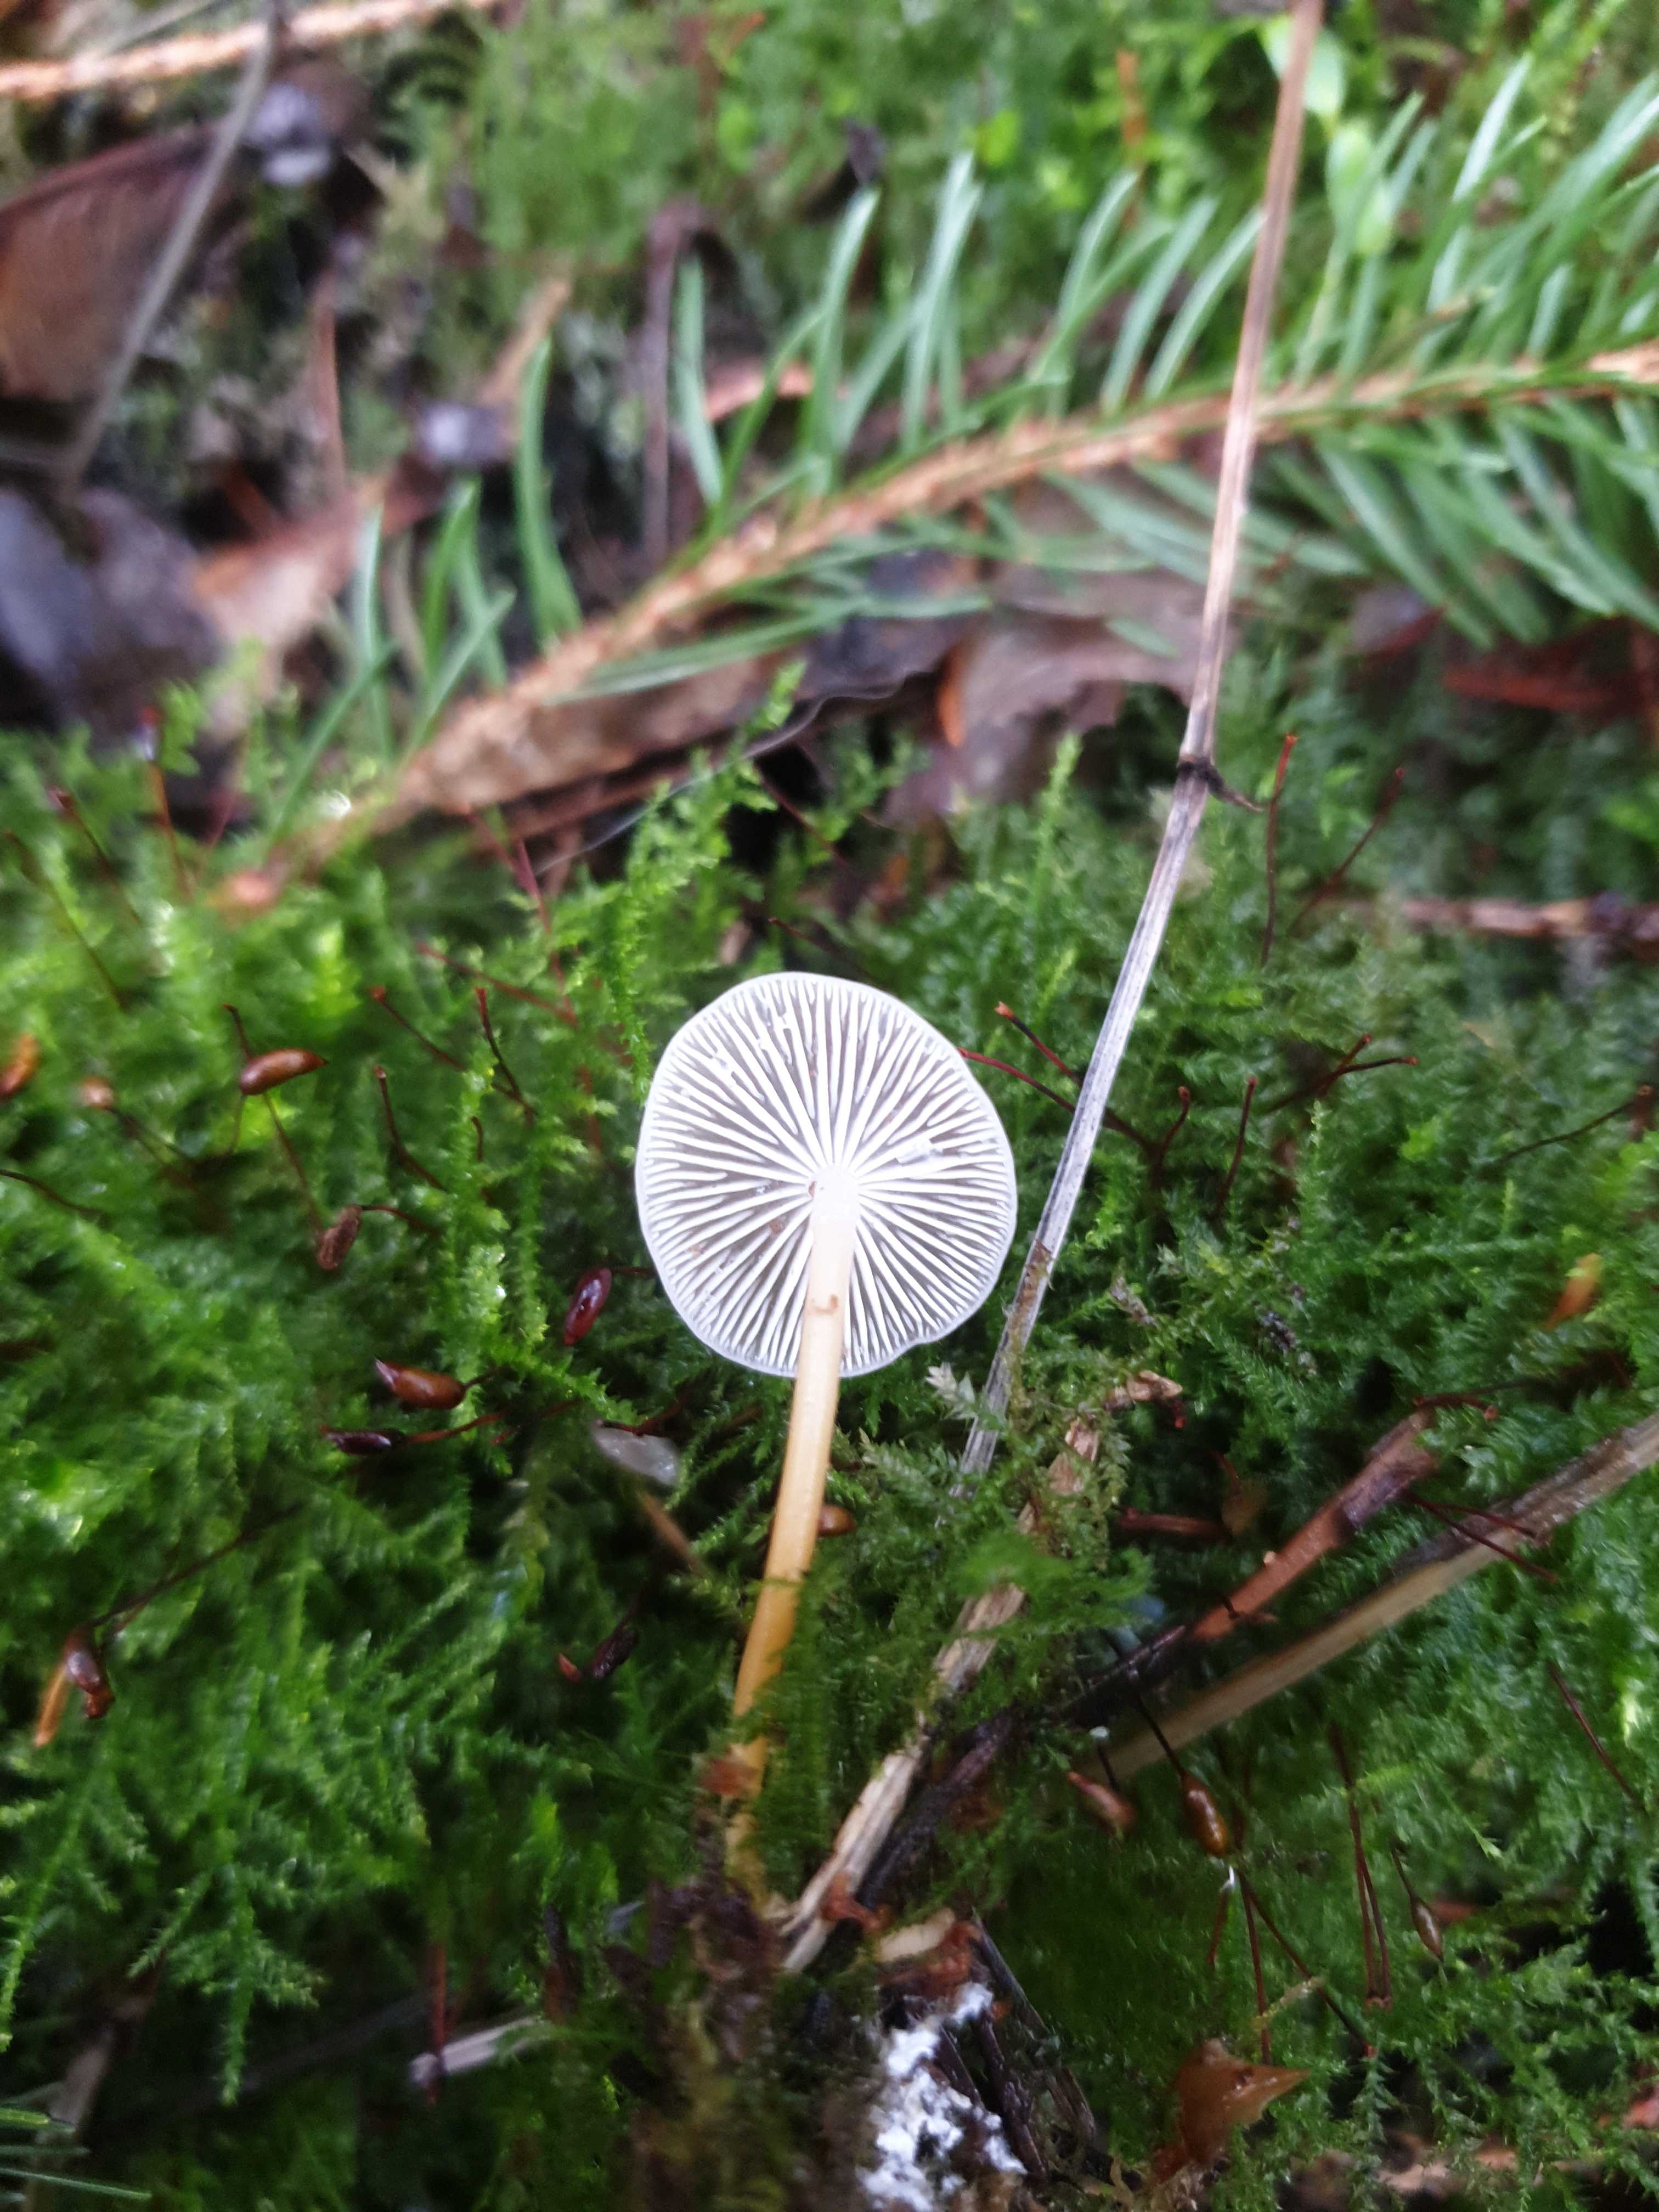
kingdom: Fungi
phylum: Basidiomycota
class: Agaricomycetes
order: Agaricales
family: Physalacriaceae
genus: Strobilurus
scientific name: Strobilurus esculentus
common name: gran-koglehat
